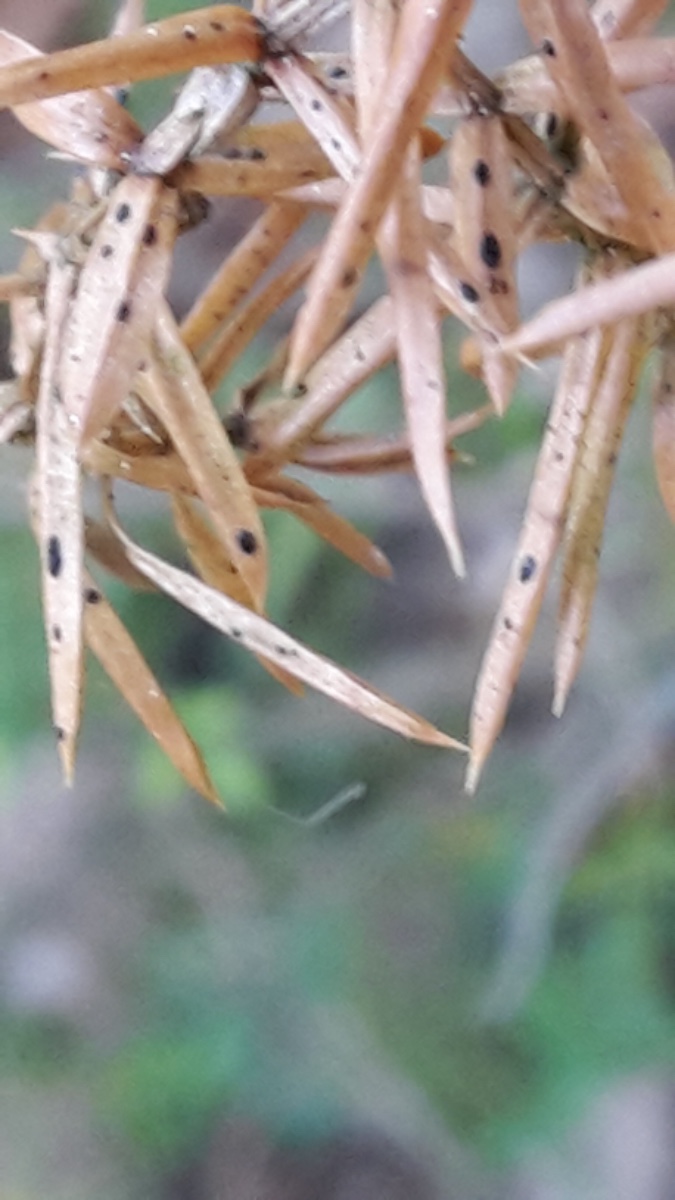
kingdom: Fungi
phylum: Ascomycota
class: Leotiomycetes
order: Rhytismatales
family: Rhytismataceae
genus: Lophodermium
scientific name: Lophodermium juniperinum
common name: ene-fureplet
